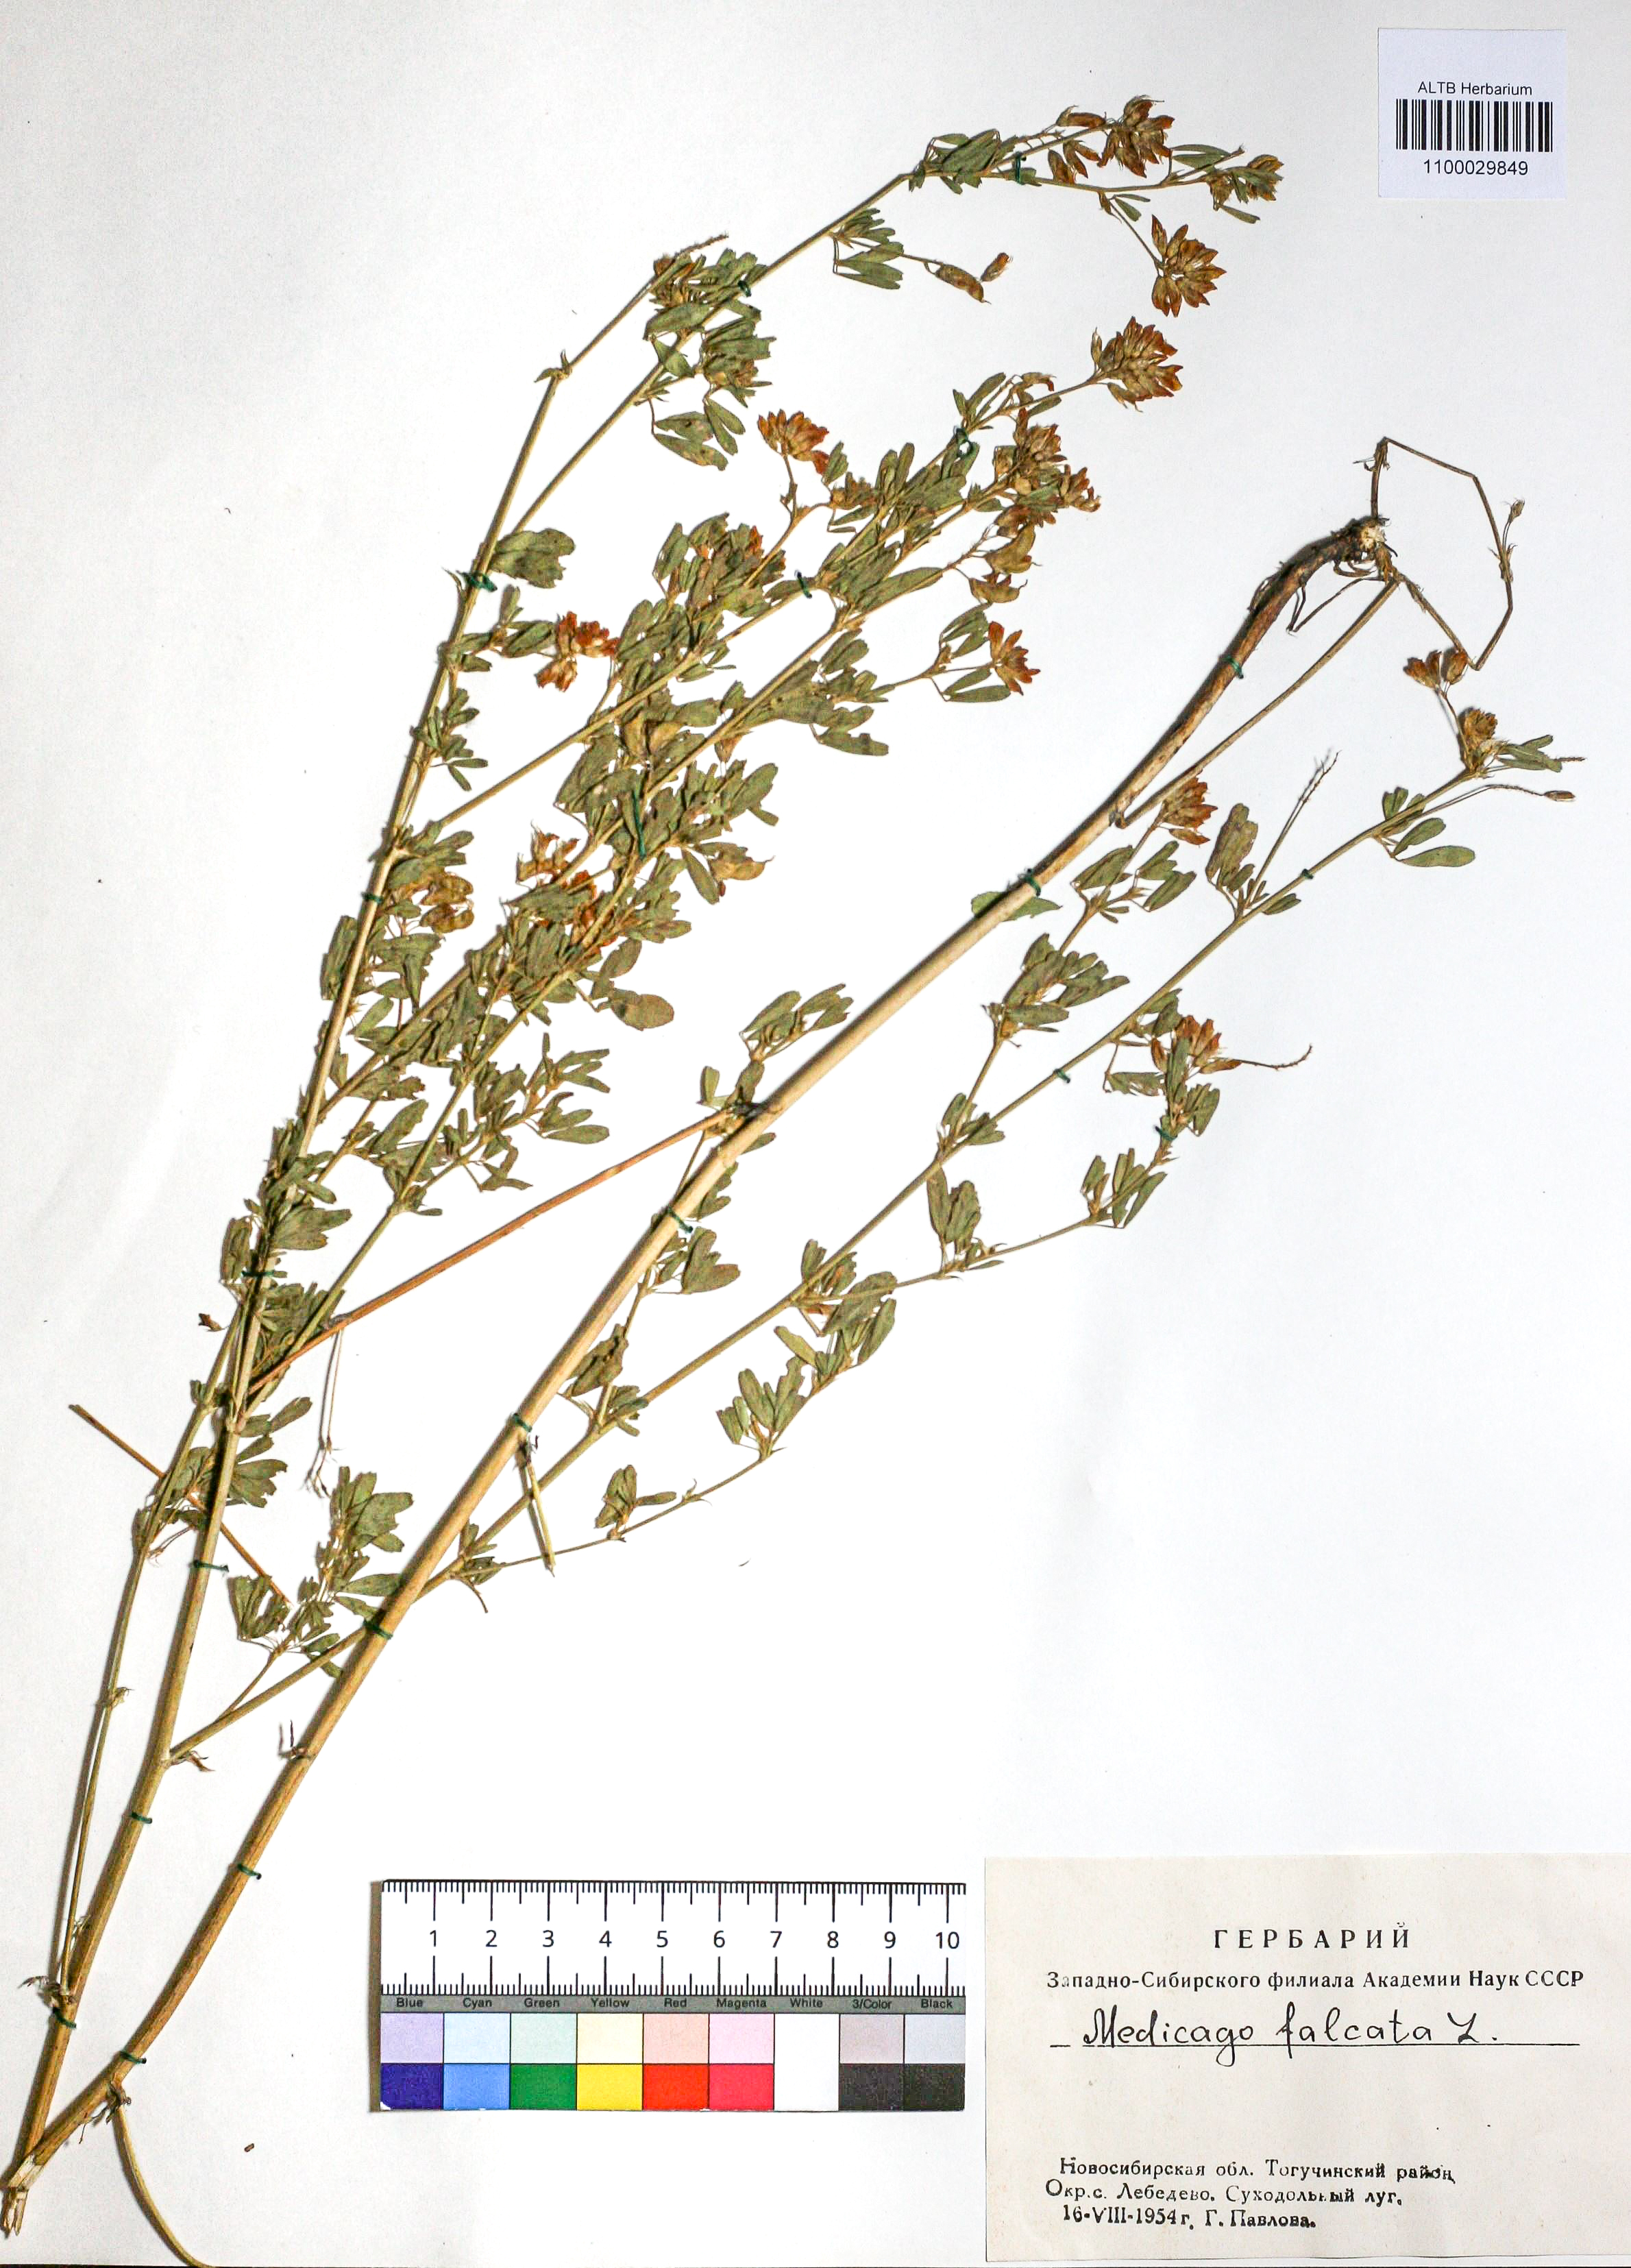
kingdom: Plantae
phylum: Tracheophyta
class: Magnoliopsida
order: Fabales
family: Fabaceae
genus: Medicago
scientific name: Medicago falcata
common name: Sickle medick
